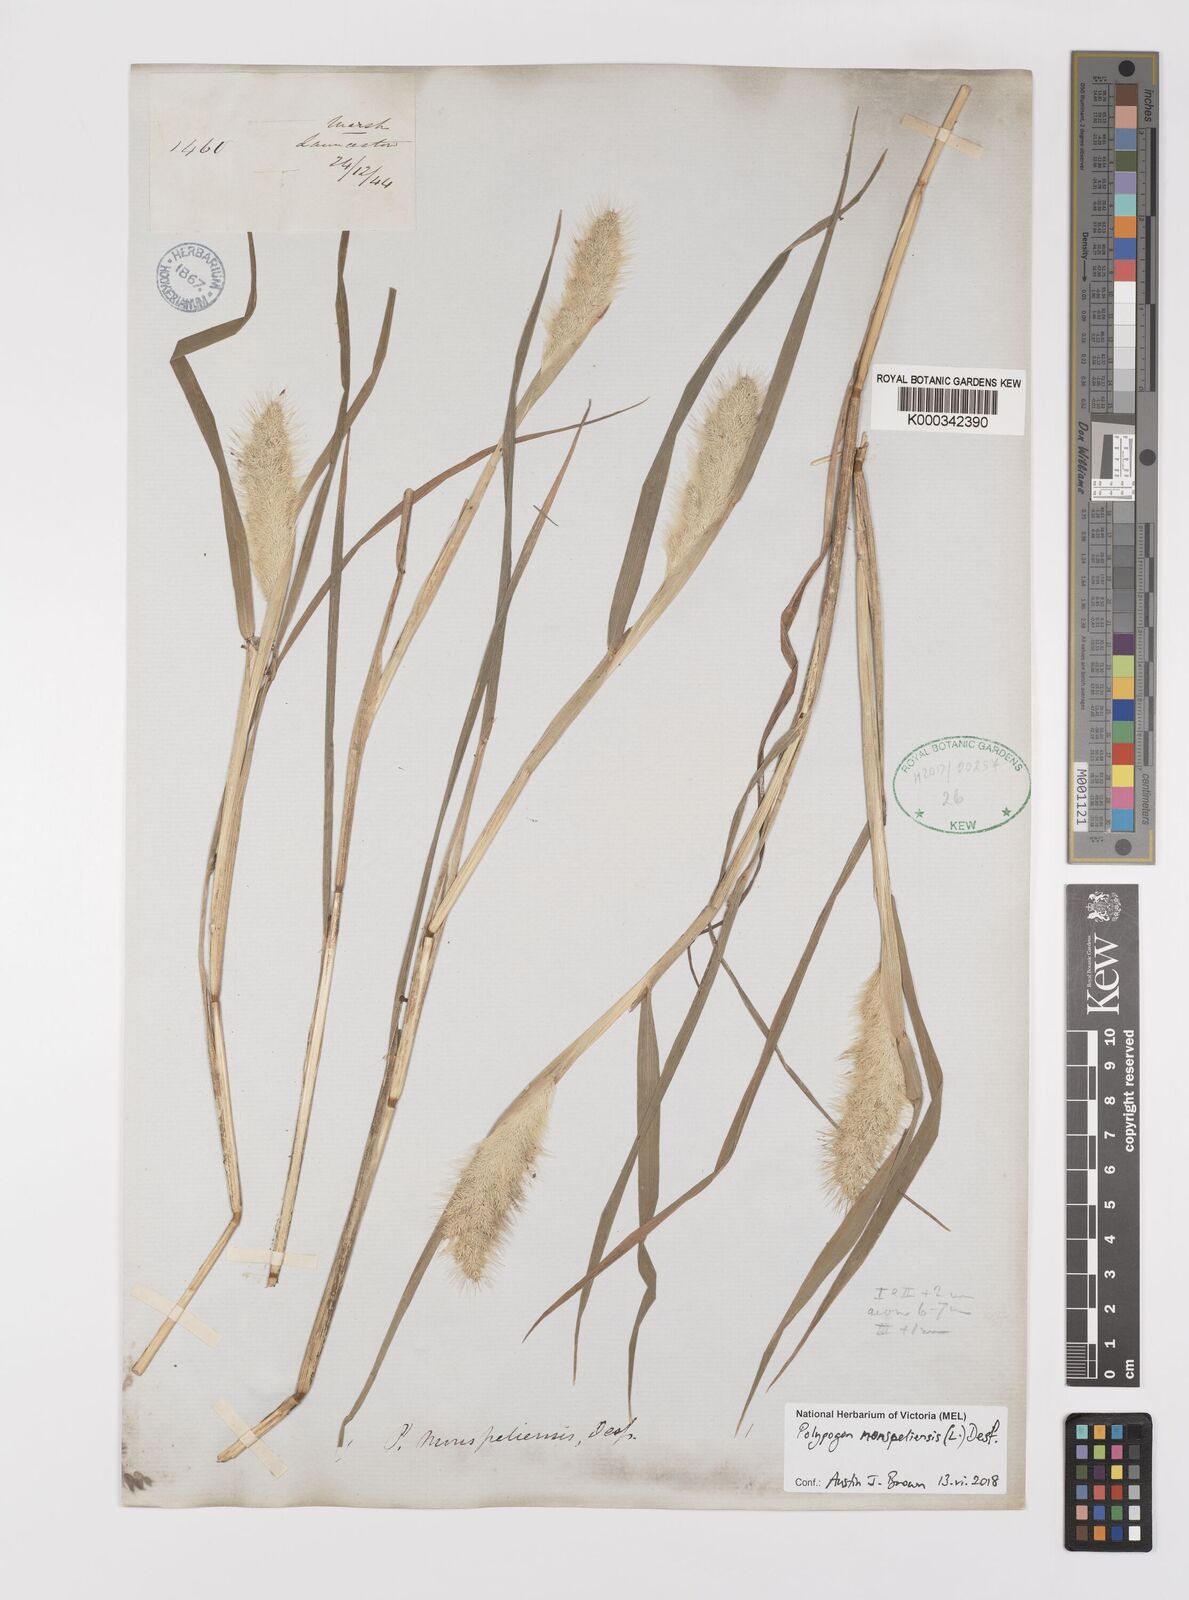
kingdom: Plantae
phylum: Tracheophyta
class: Liliopsida
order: Poales
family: Poaceae
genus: Polypogon
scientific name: Polypogon monspeliensis
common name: Annual rabbitsfoot grass
